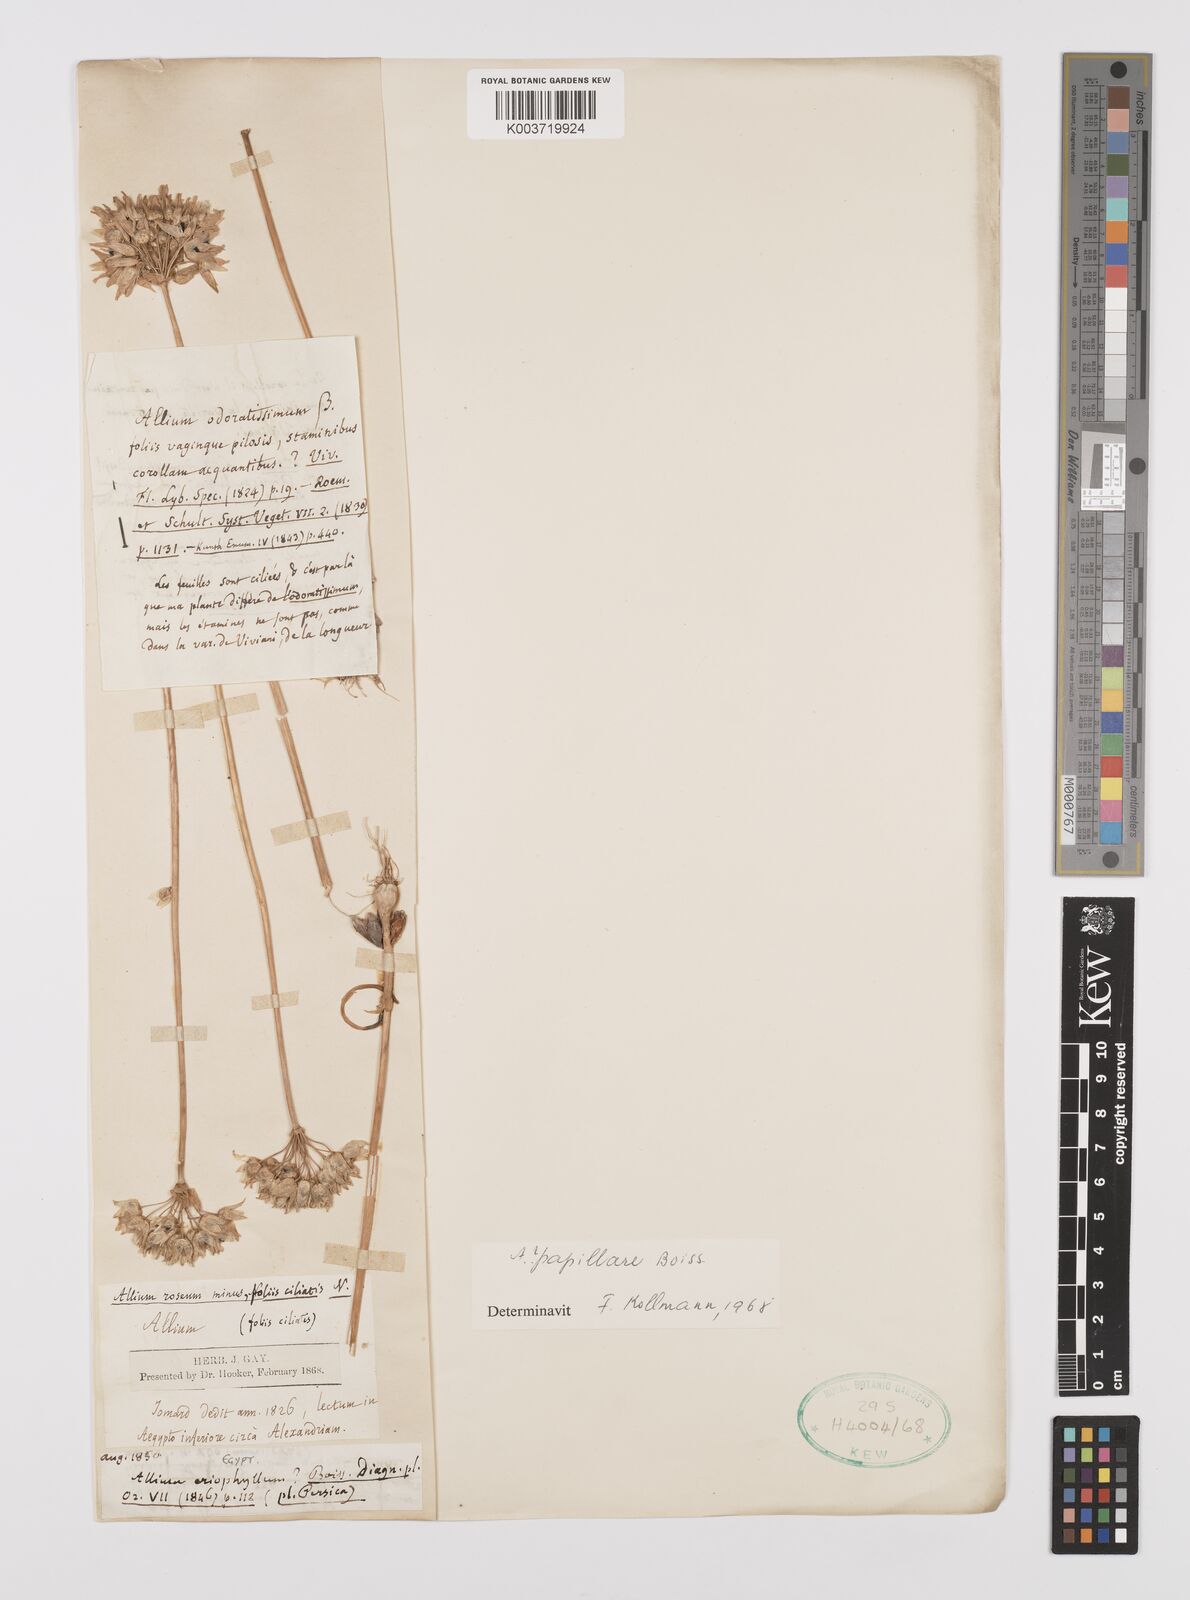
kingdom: Plantae
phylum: Tracheophyta
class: Liliopsida
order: Asparagales
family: Amaryllidaceae
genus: Allium
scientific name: Allium papillare
